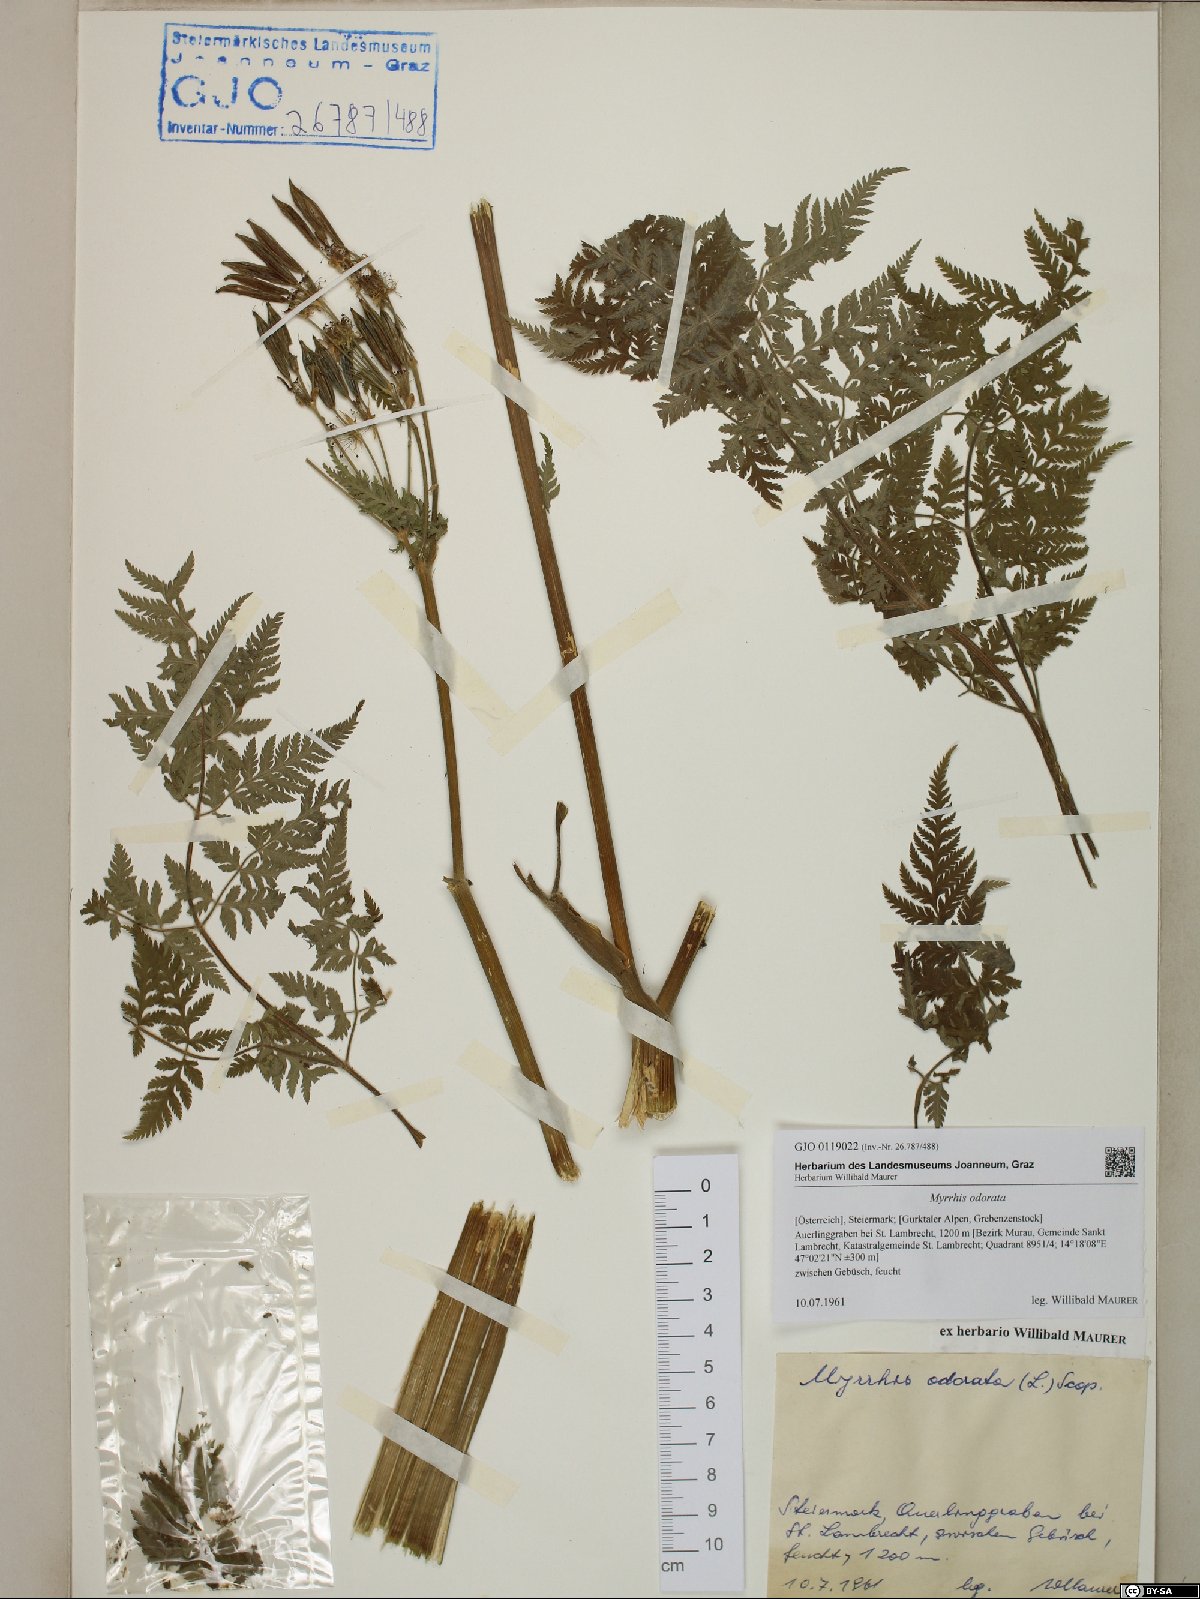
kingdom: Plantae
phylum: Tracheophyta
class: Magnoliopsida
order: Apiales
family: Apiaceae
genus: Myrrhis
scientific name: Myrrhis odorata
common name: Sweet cicely
